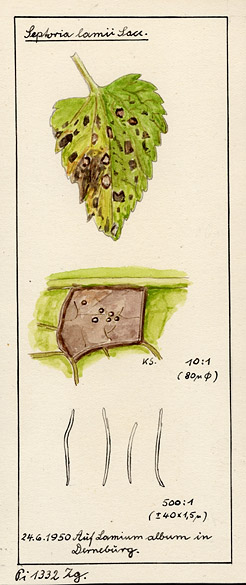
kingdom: Fungi
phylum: Ascomycota
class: Dothideomycetes
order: Mycosphaerellales
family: Mycosphaerellaceae
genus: Septoria
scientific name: Septoria lamii
